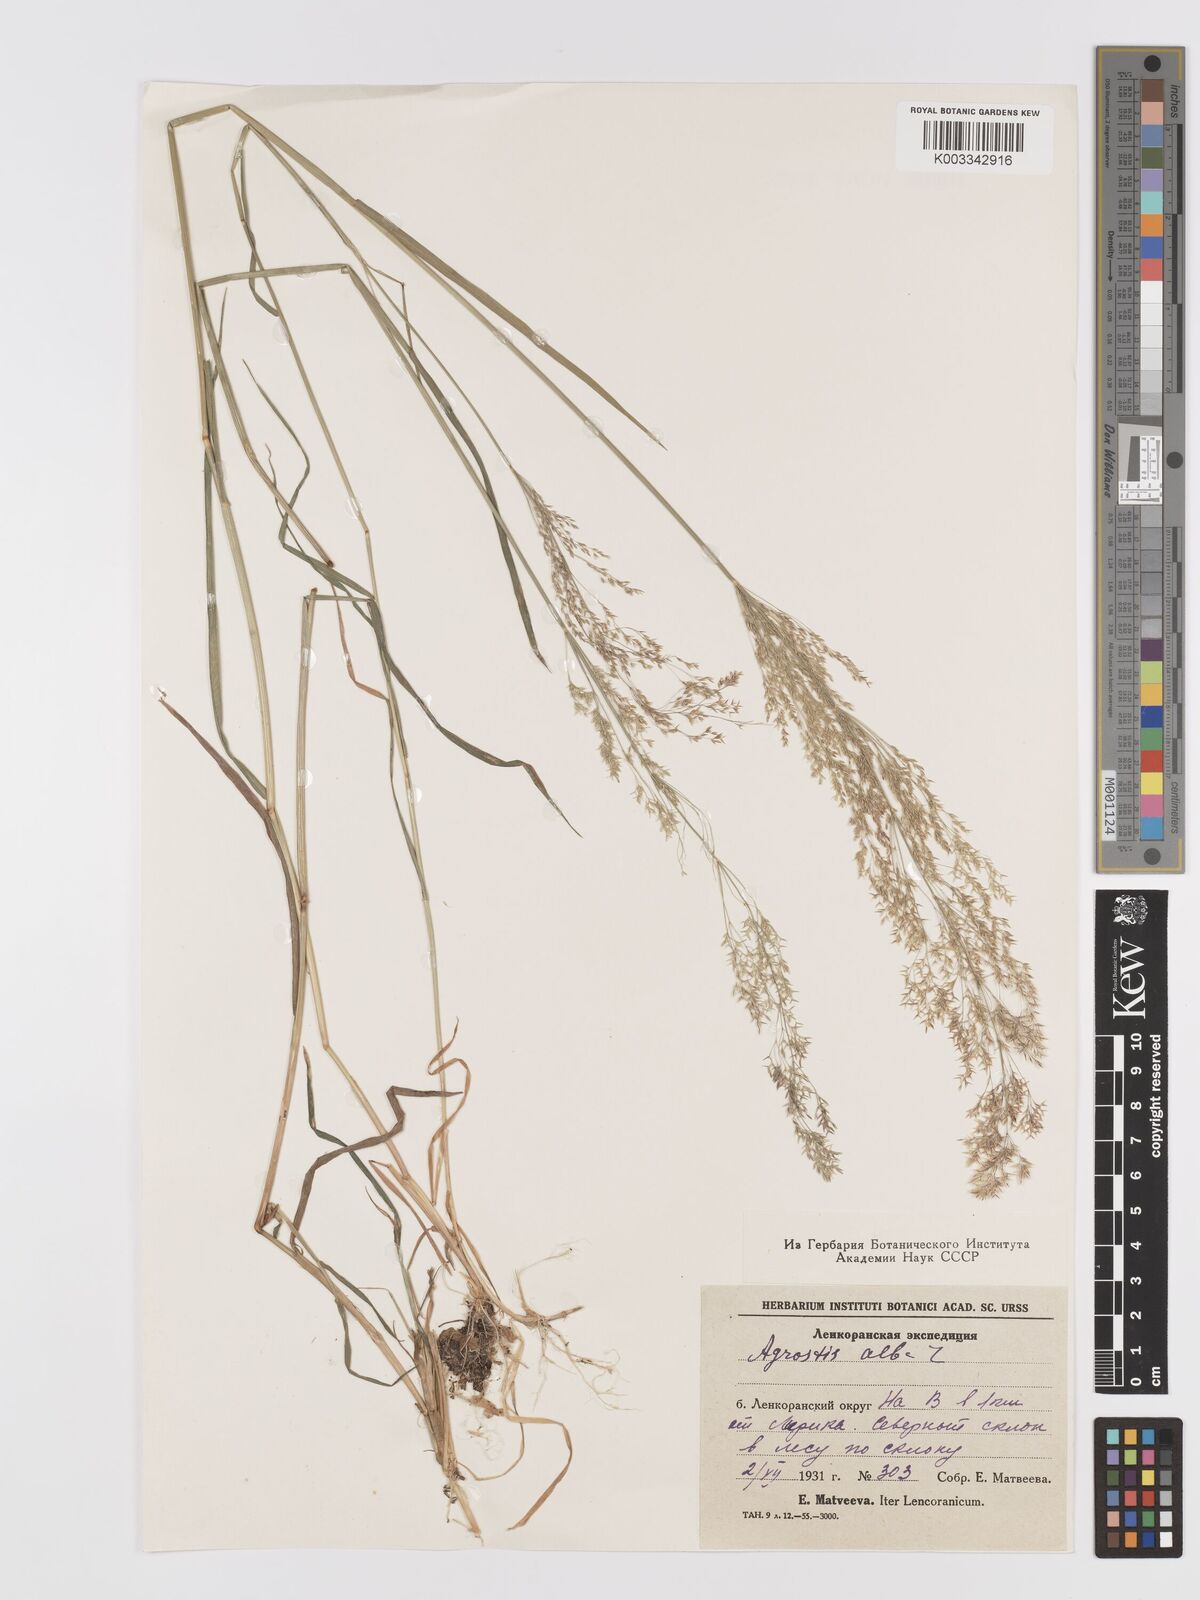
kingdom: Plantae
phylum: Tracheophyta
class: Liliopsida
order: Poales
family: Poaceae
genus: Agrostis
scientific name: Agrostis gigantea
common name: Black bent
